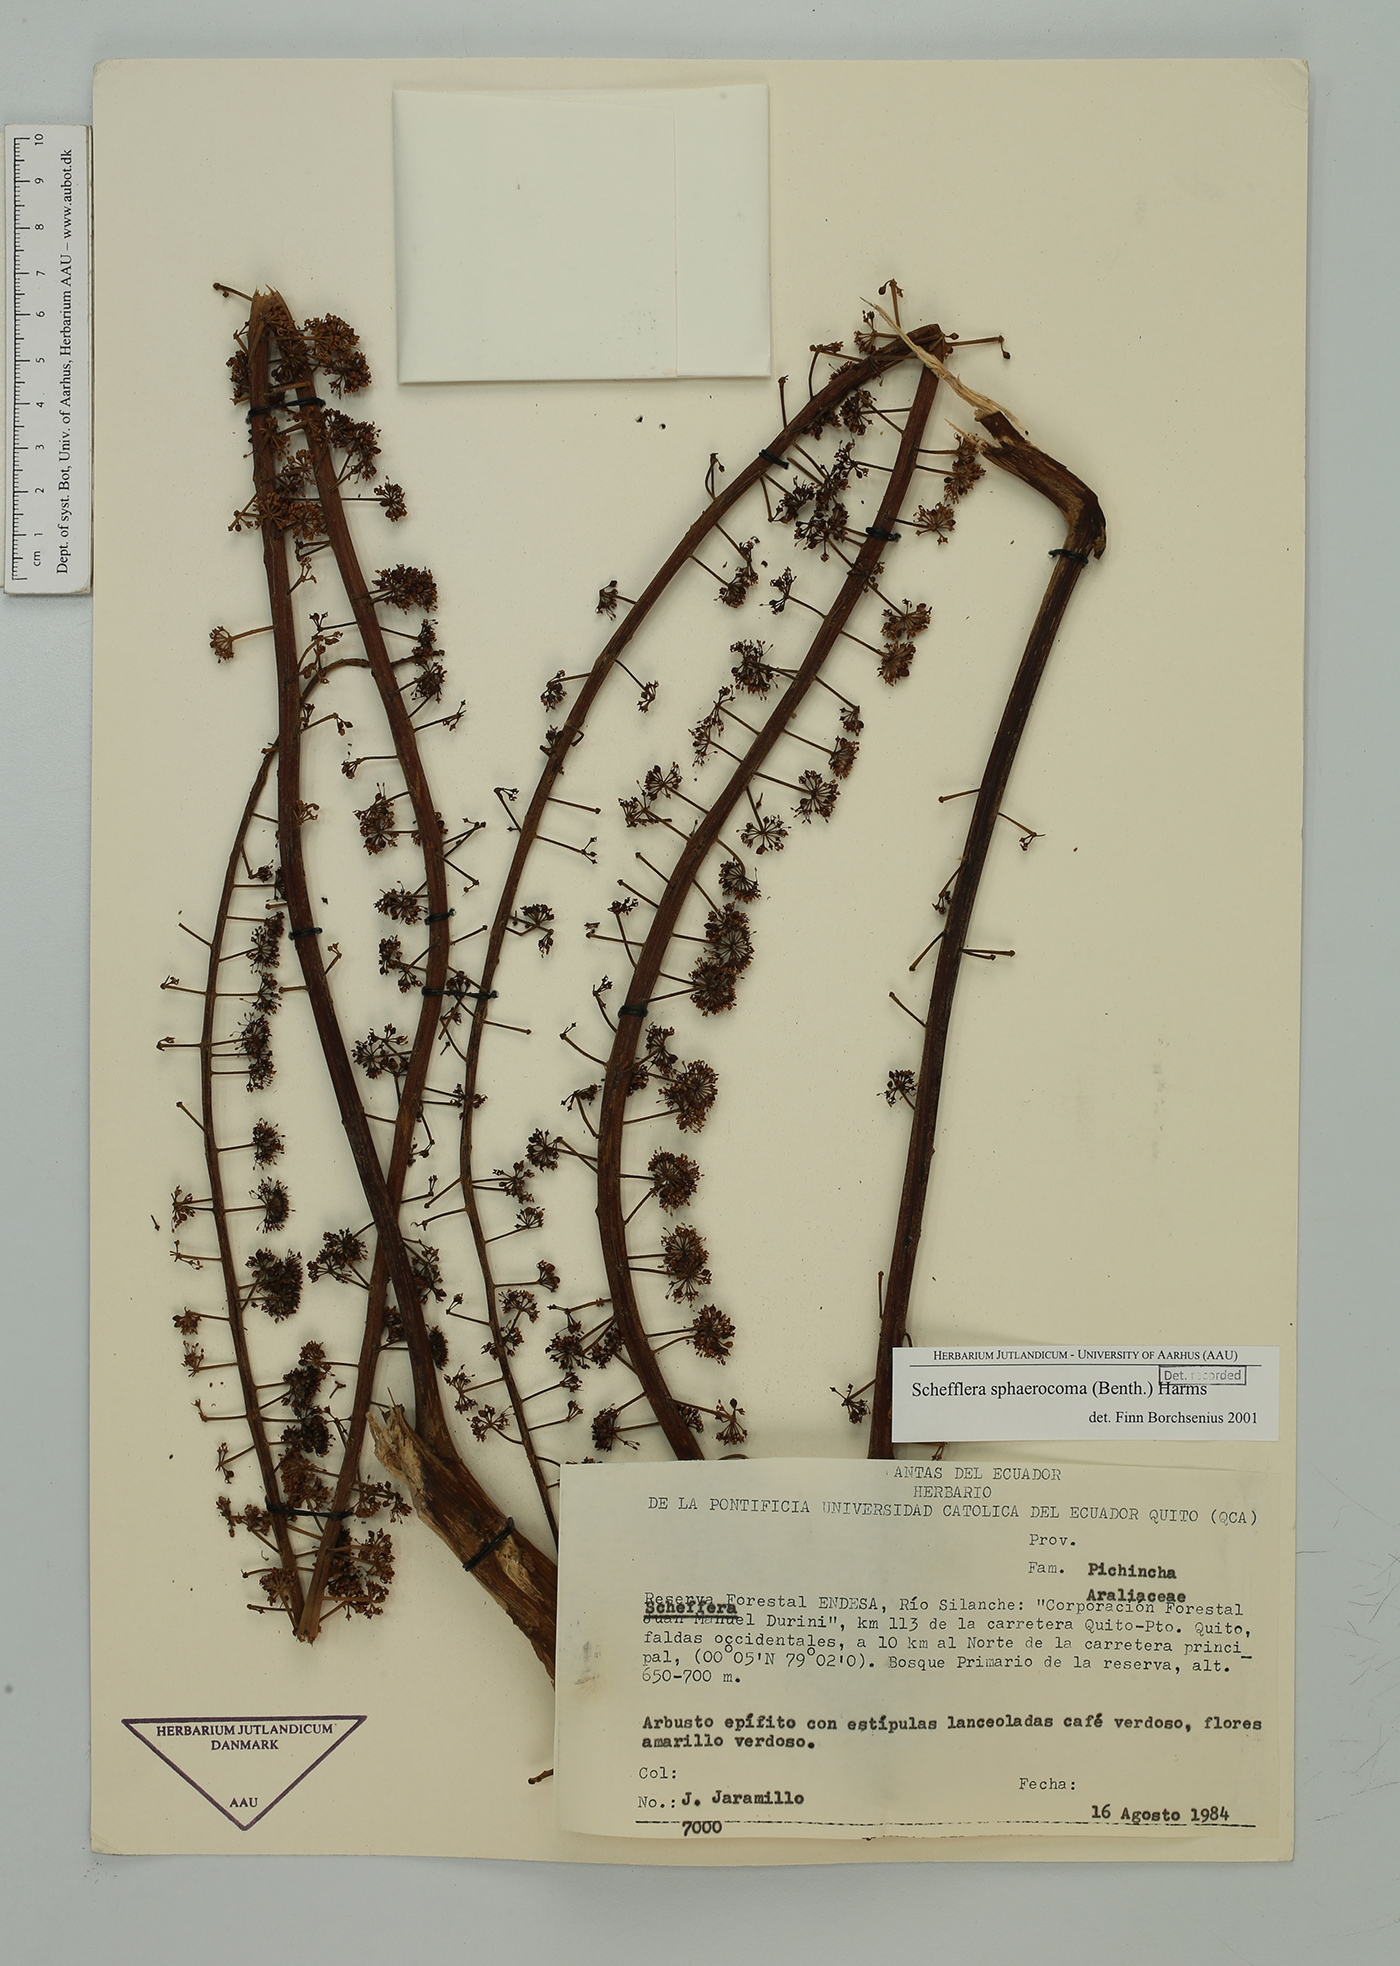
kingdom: Plantae
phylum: Tracheophyta
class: Magnoliopsida
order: Apiales
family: Araliaceae
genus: Sciodaphyllum
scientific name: Sciodaphyllum sphaerocoma
